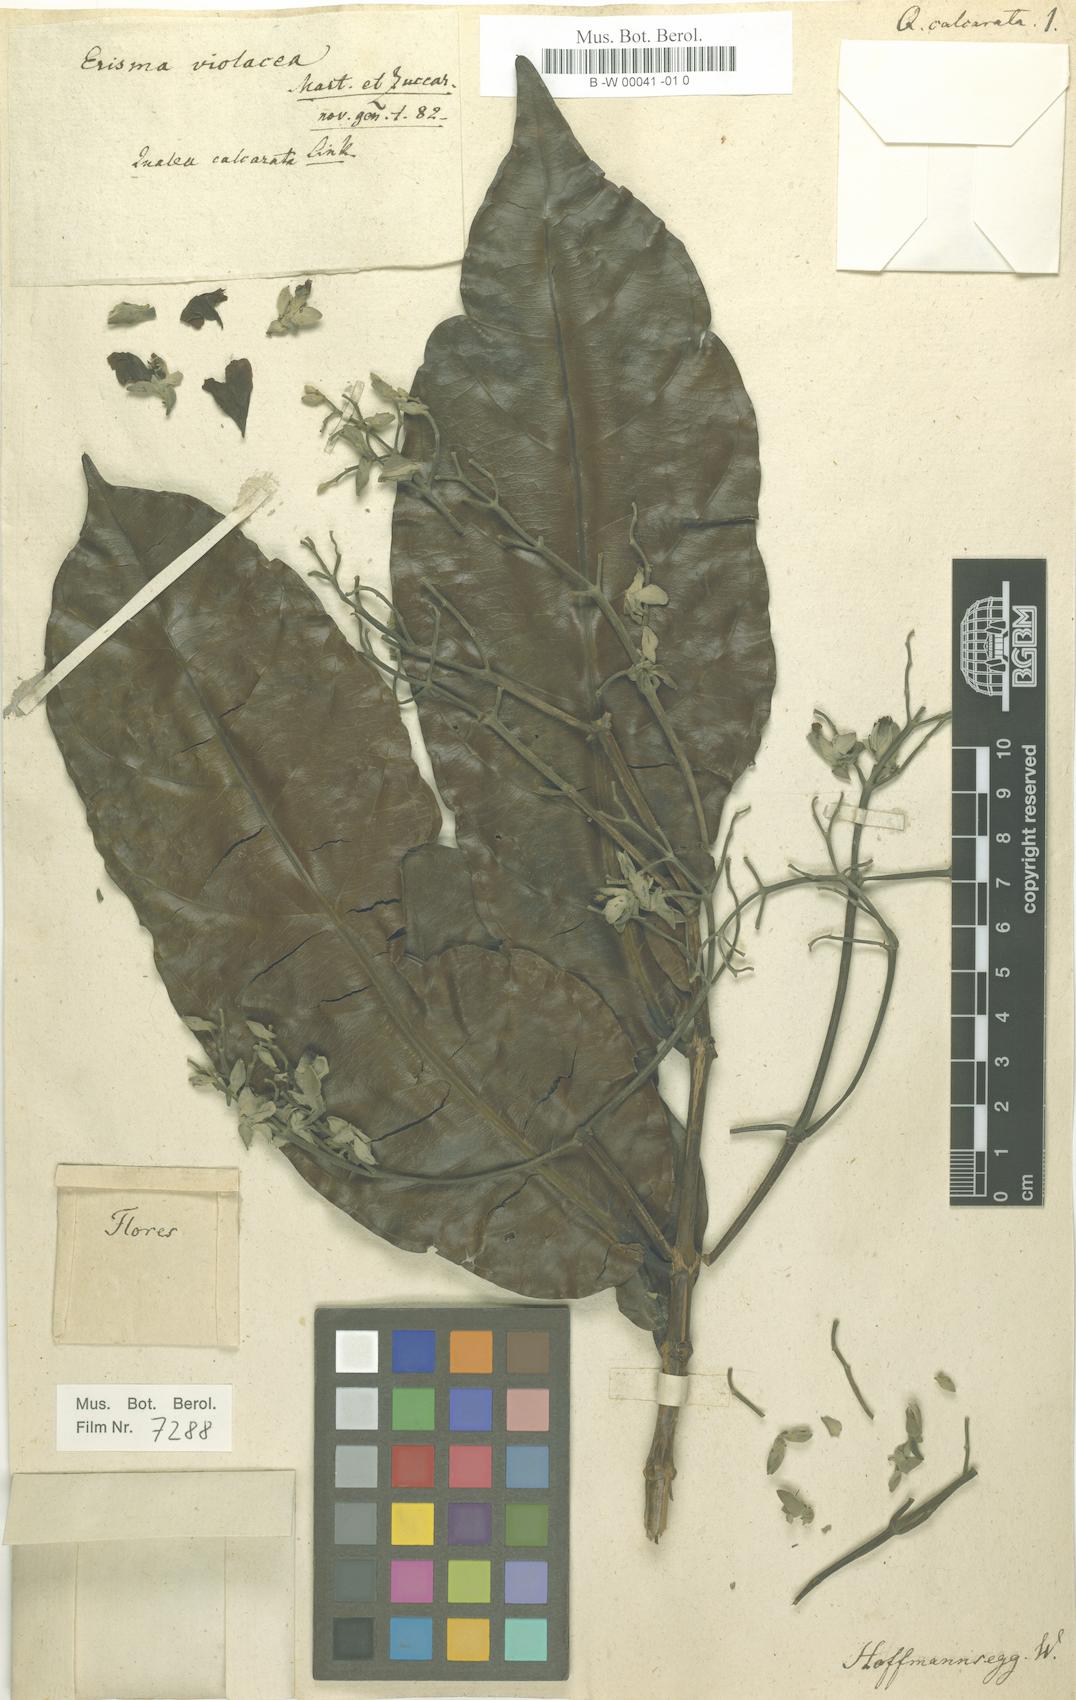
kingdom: Plantae
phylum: Tracheophyta
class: Magnoliopsida
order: Myrtales
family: Vochysiaceae
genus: Erisma
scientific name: Erisma calcaratum
